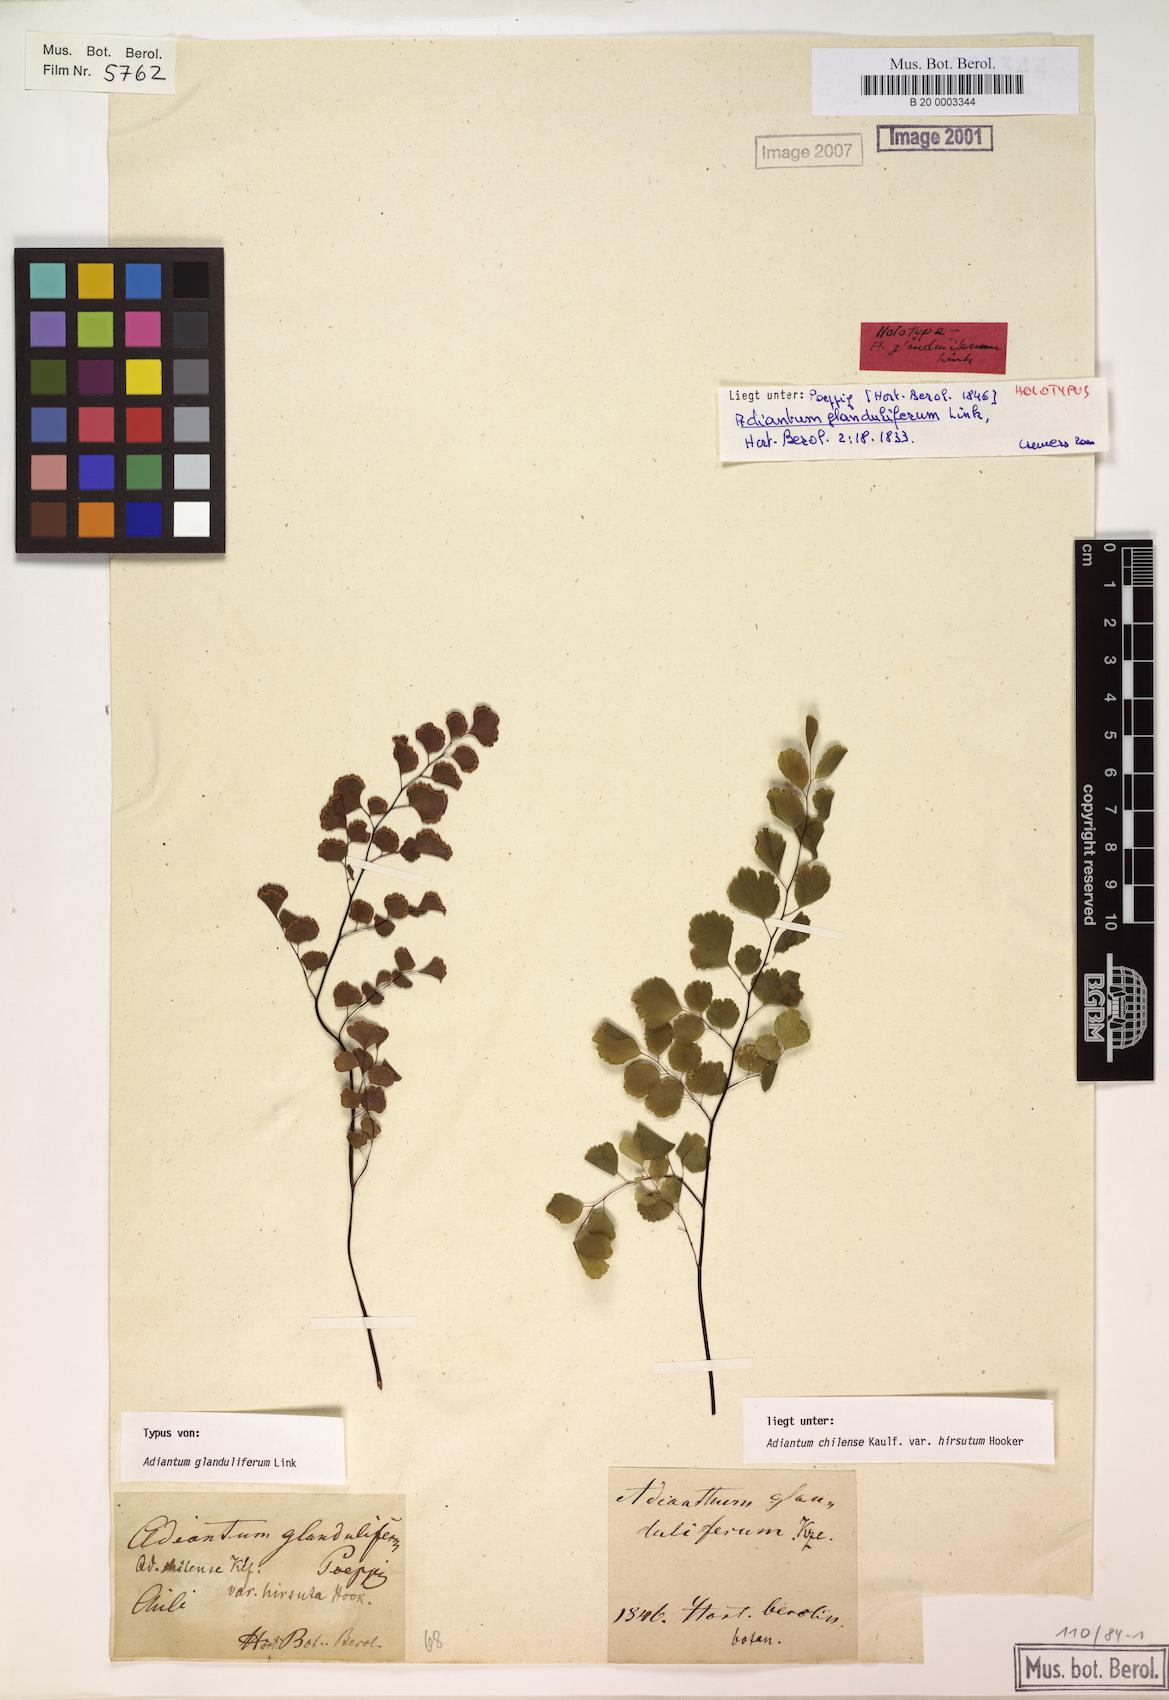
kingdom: Plantae
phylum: Tracheophyta
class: Polypodiopsida
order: Polypodiales
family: Pteridaceae
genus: Adiantum
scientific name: Adiantum chilense
